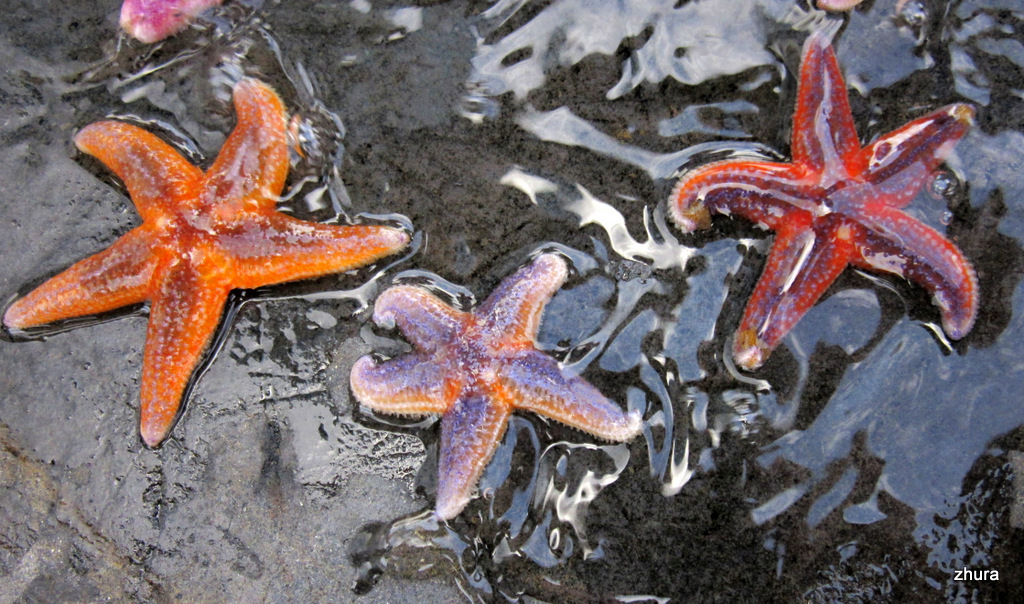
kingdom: Animalia
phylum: Echinodermata
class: Asteroidea
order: Forcipulatida
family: Asteriidae
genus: Asterias
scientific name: Asterias rubens
